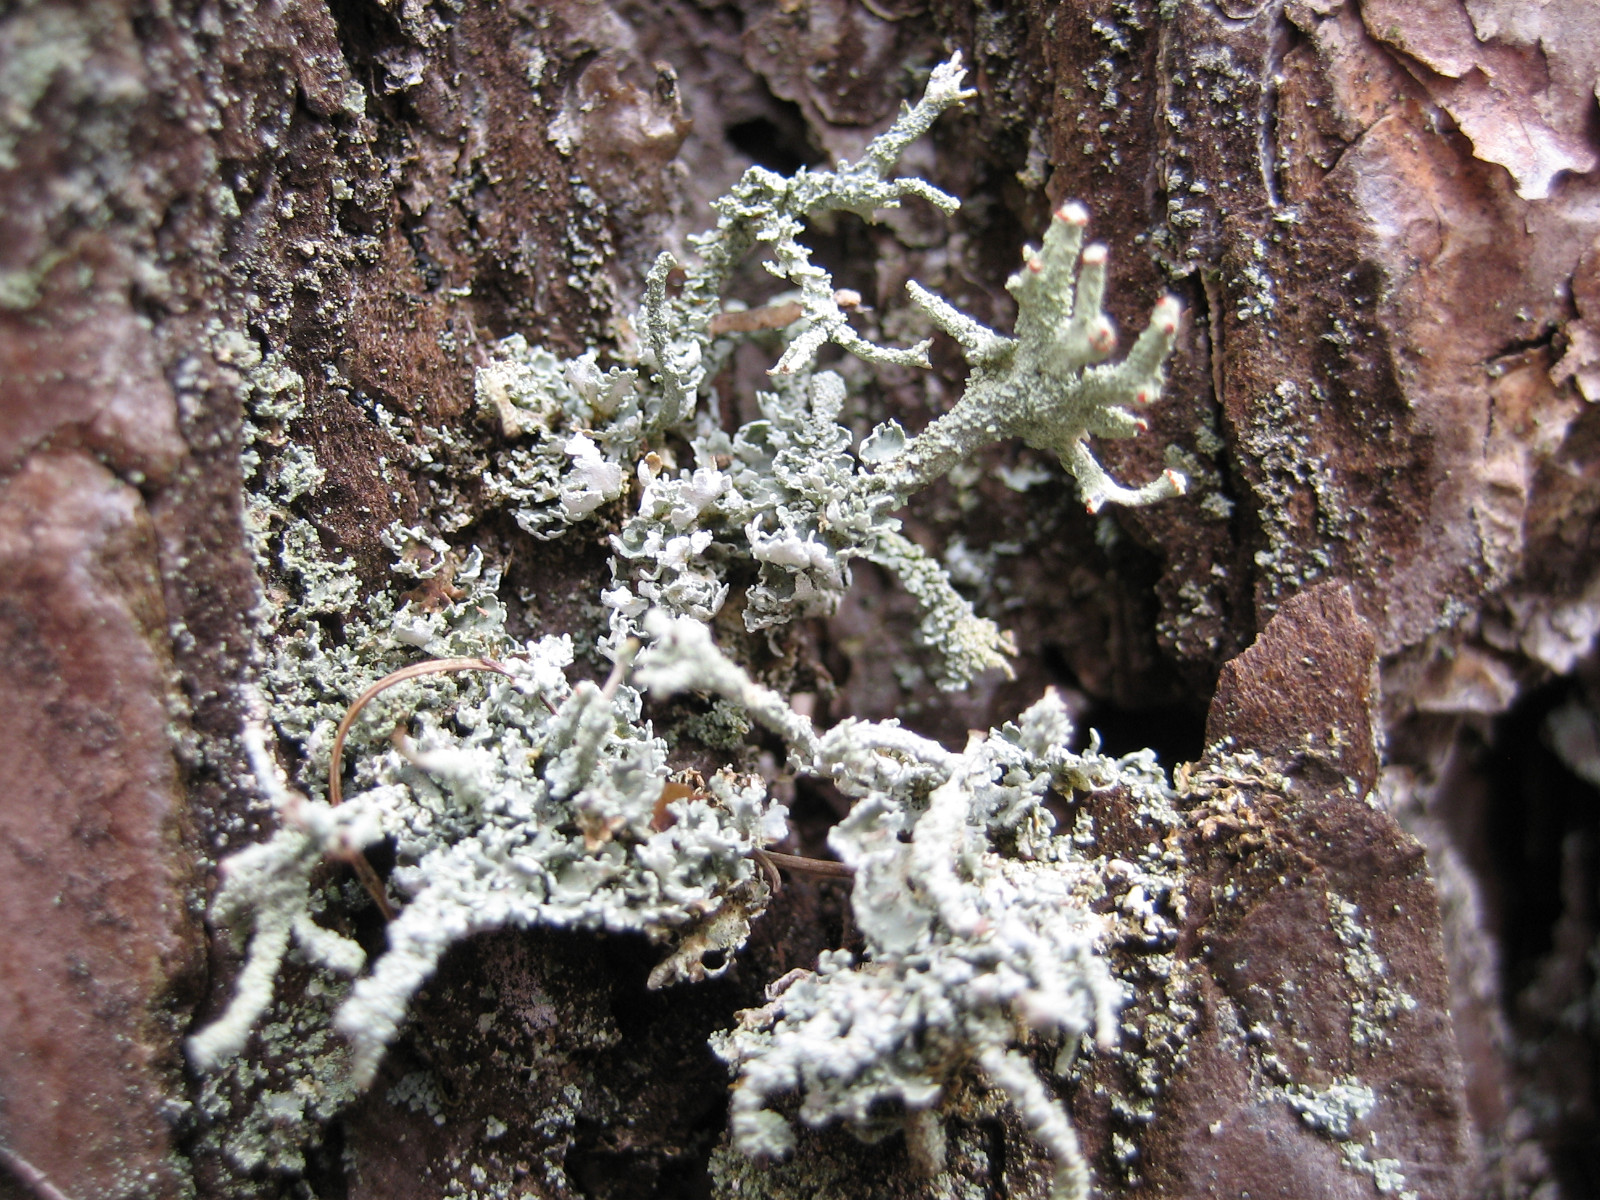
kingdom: Fungi
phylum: Ascomycota
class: Lecanoromycetes
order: Lecanorales
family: Cladoniaceae
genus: Cladonia
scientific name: Cladonia polydactyla
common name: vifte-bægerlav
